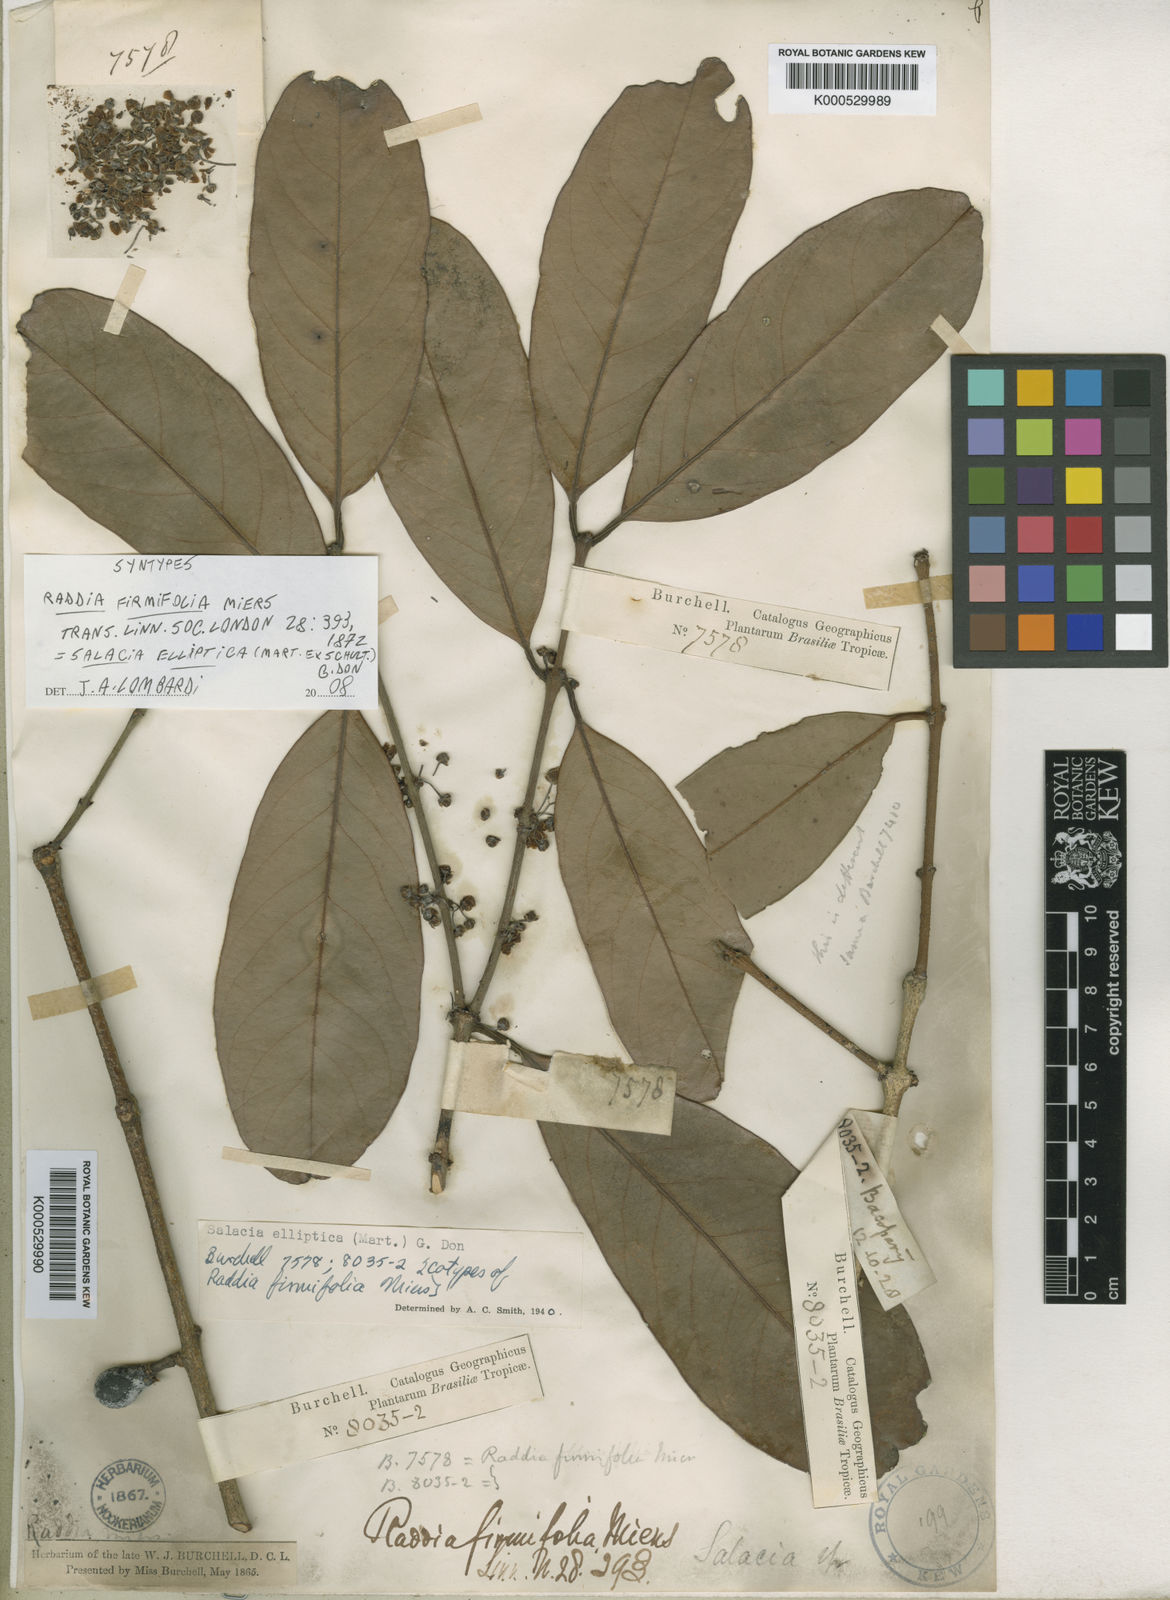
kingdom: Plantae
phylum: Tracheophyta
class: Magnoliopsida
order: Celastrales
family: Celastraceae
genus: Salacia
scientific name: Salacia elliptica
